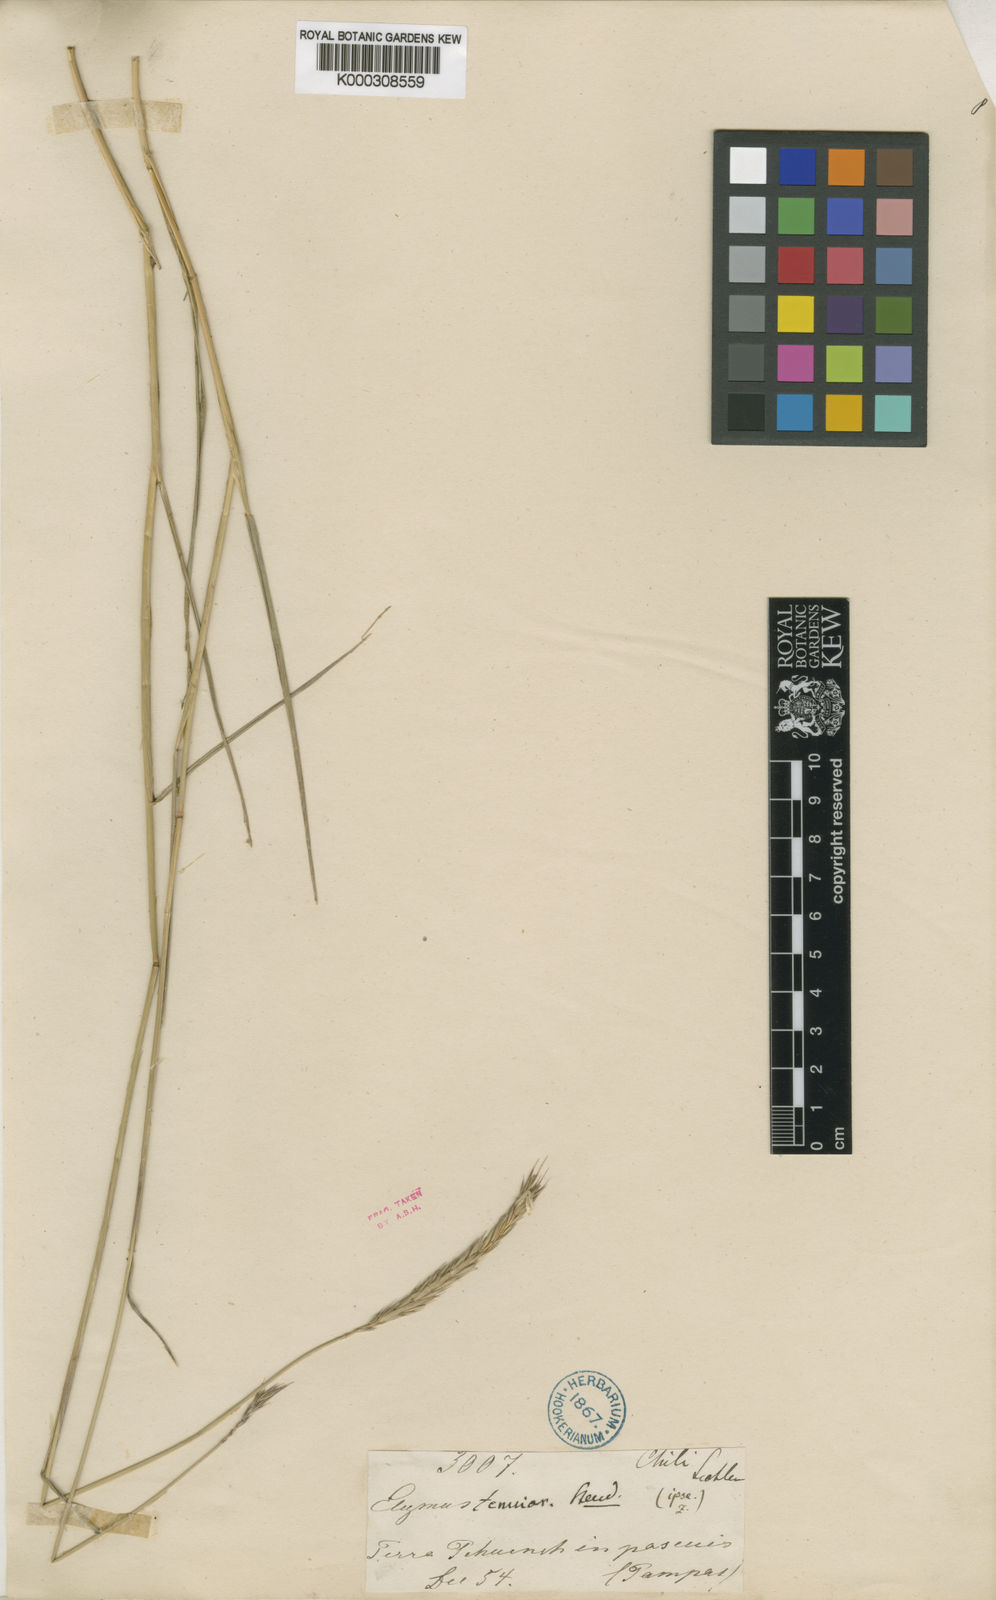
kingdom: Plantae
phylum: Tracheophyta
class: Liliopsida
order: Poales
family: Poaceae
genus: Elymus
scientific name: Elymus
